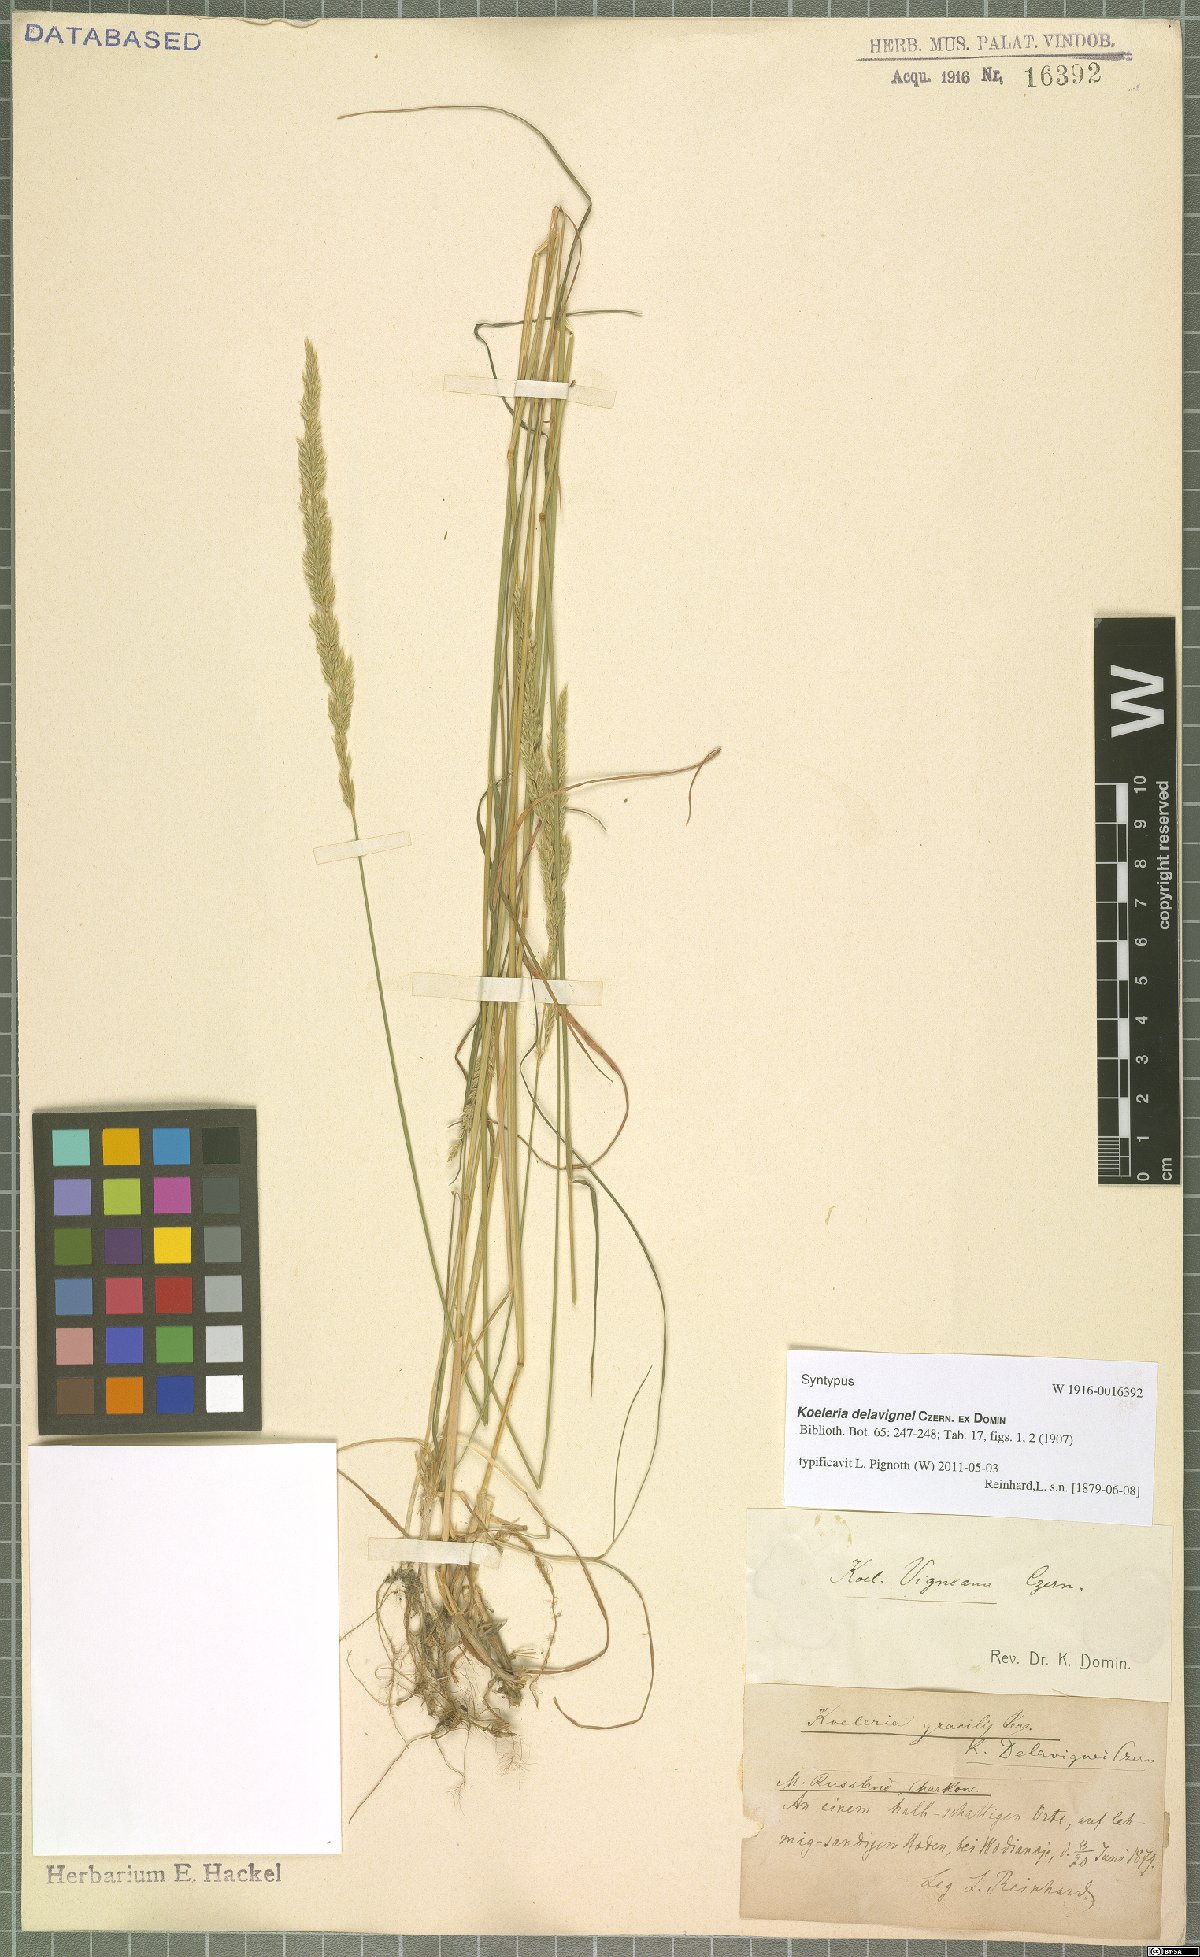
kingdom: Plantae
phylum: Tracheophyta
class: Liliopsida
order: Poales
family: Poaceae
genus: Koeleria
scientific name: Koeleria delavignei
